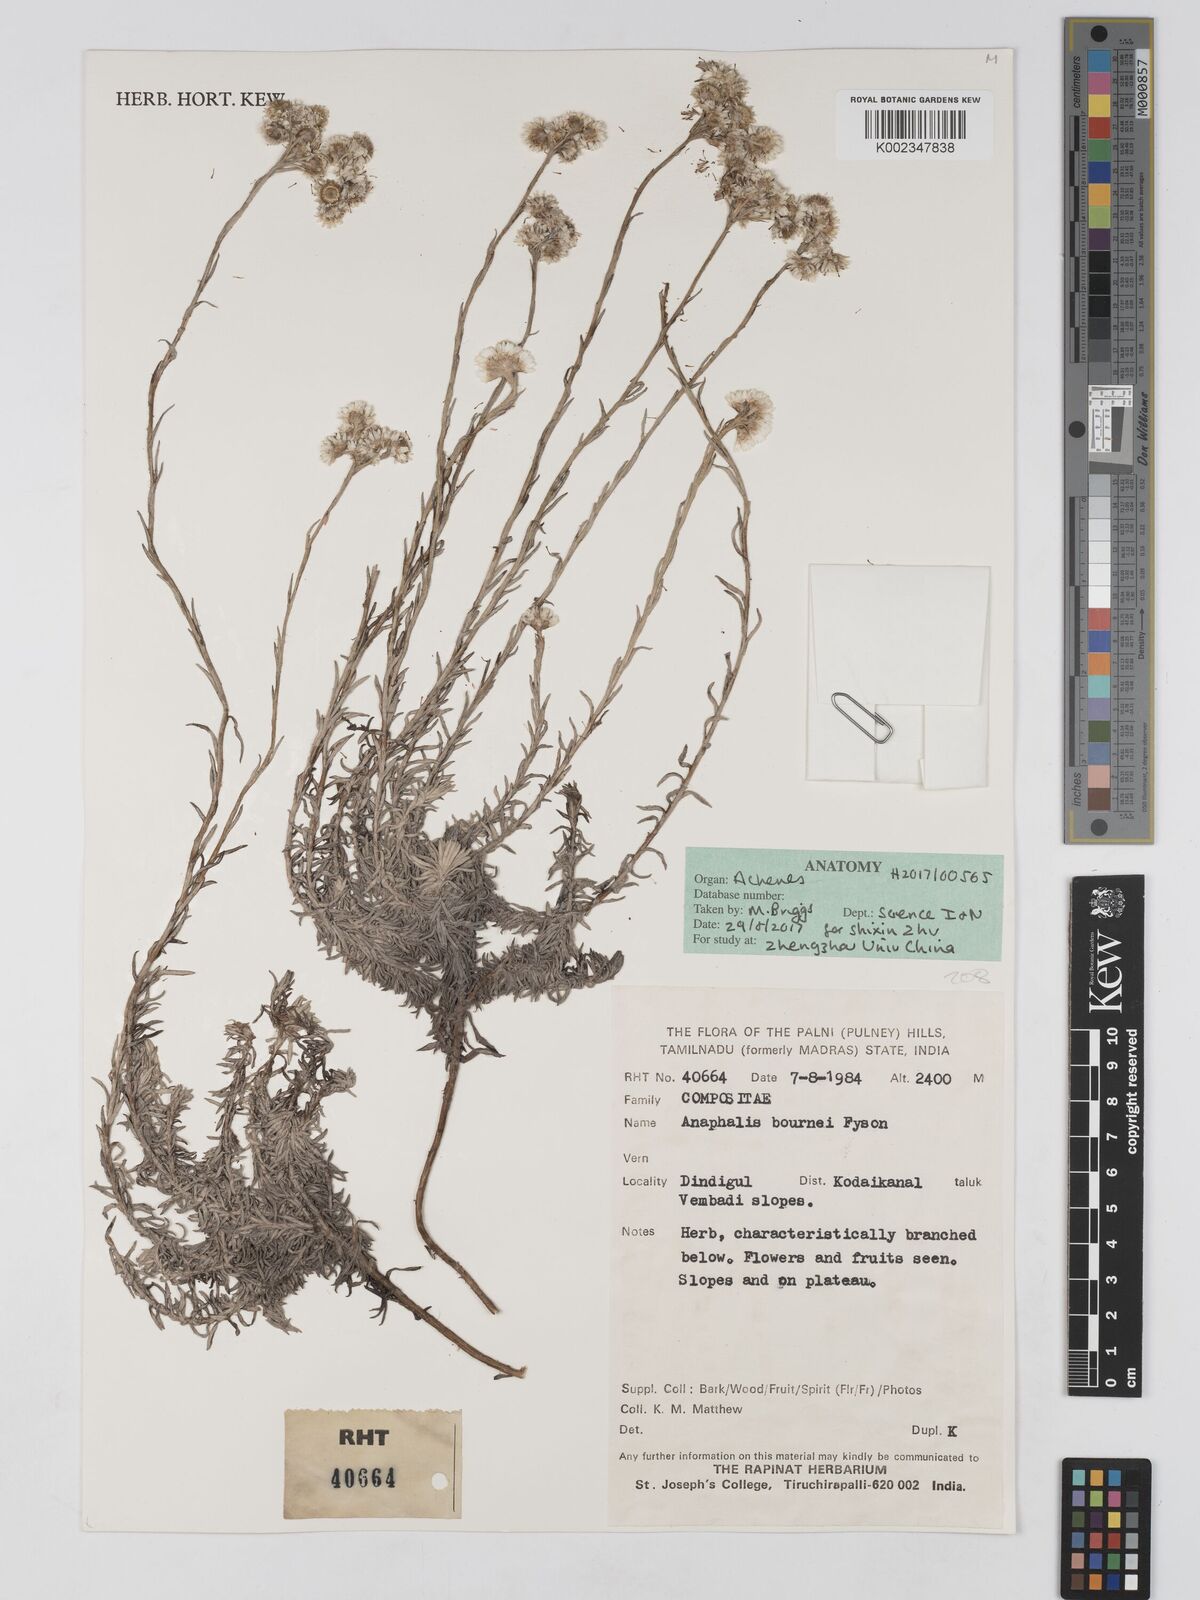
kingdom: Plantae
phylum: Tracheophyta
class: Magnoliopsida
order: Asterales
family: Asteraceae
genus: Anaphalis
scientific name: Anaphalis bournei
